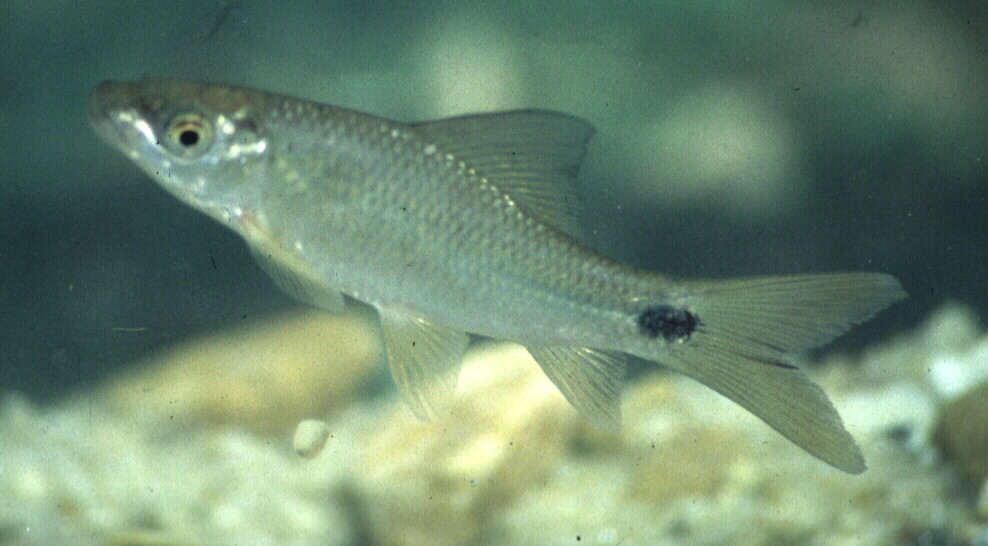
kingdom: Animalia
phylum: Chordata
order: Cypriniformes
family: Cyprinidae
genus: Labeo
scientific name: Labeo congoro
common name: Purple labeo
